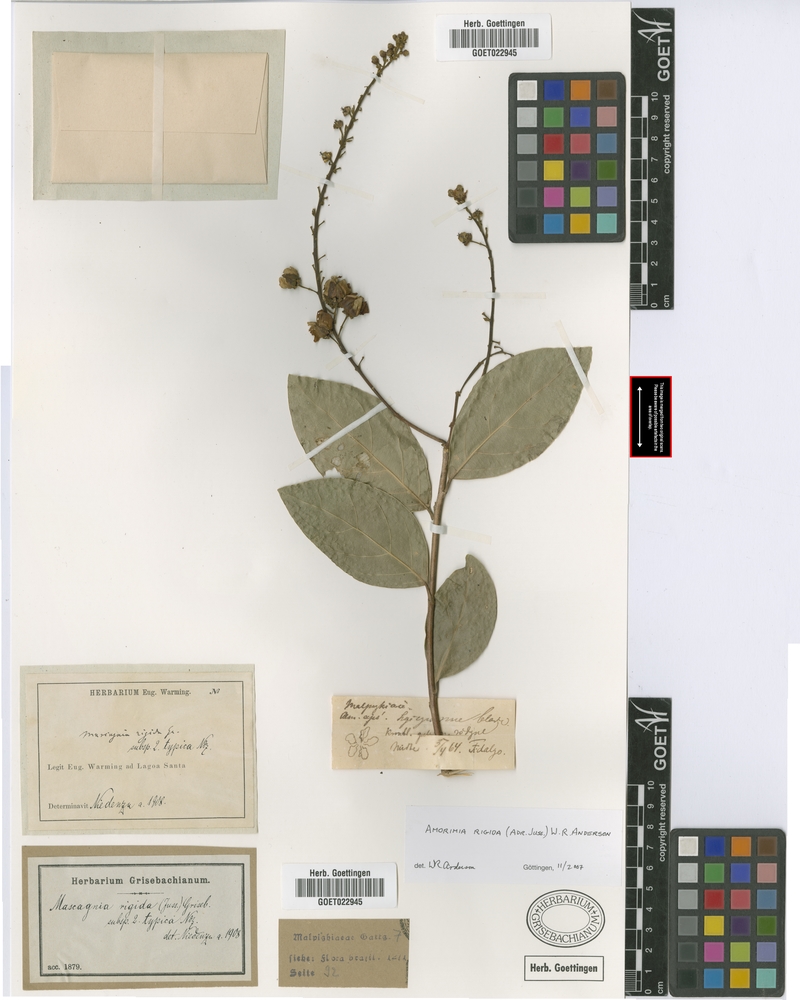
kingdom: Plantae
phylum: Tracheophyta
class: Magnoliopsida
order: Malpighiales
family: Malpighiaceae
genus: Amorimia
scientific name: Amorimia rigida
